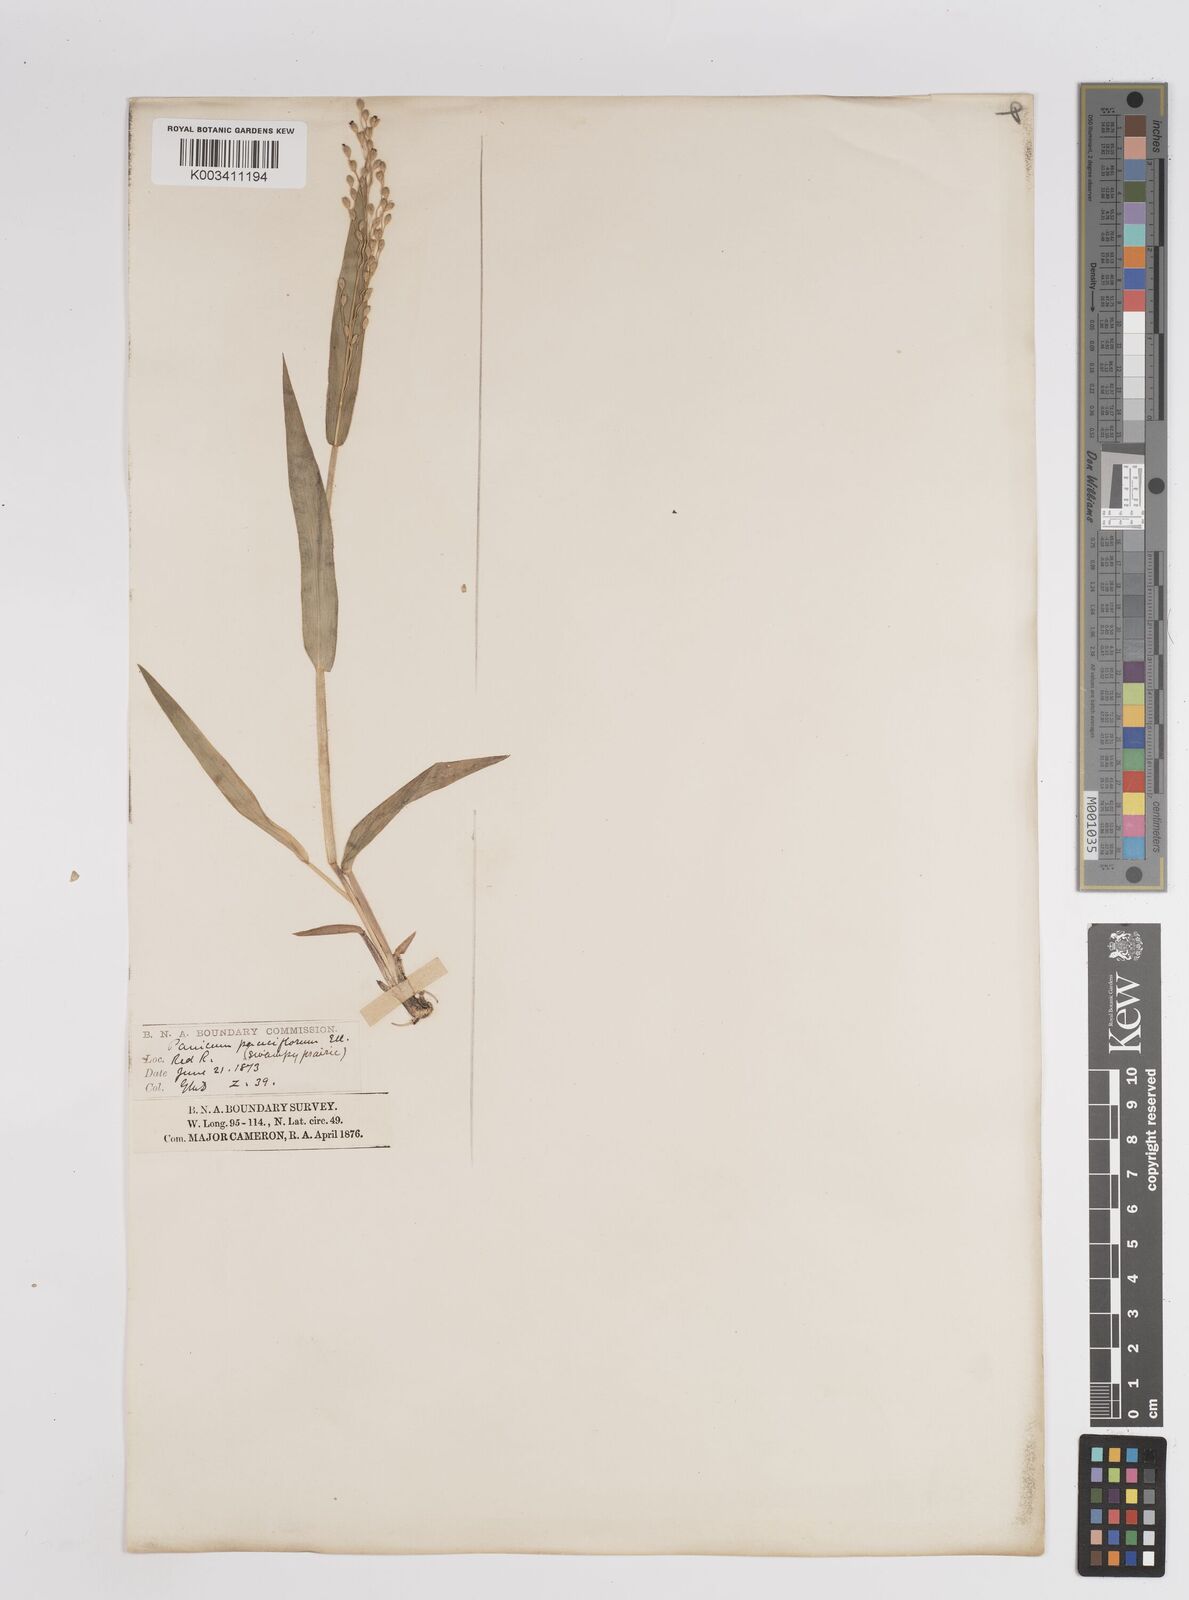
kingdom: Plantae
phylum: Tracheophyta
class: Liliopsida
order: Poales
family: Poaceae
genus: Dichanthelium
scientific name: Dichanthelium oligosanthes
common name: Few-anther obscuregrass
